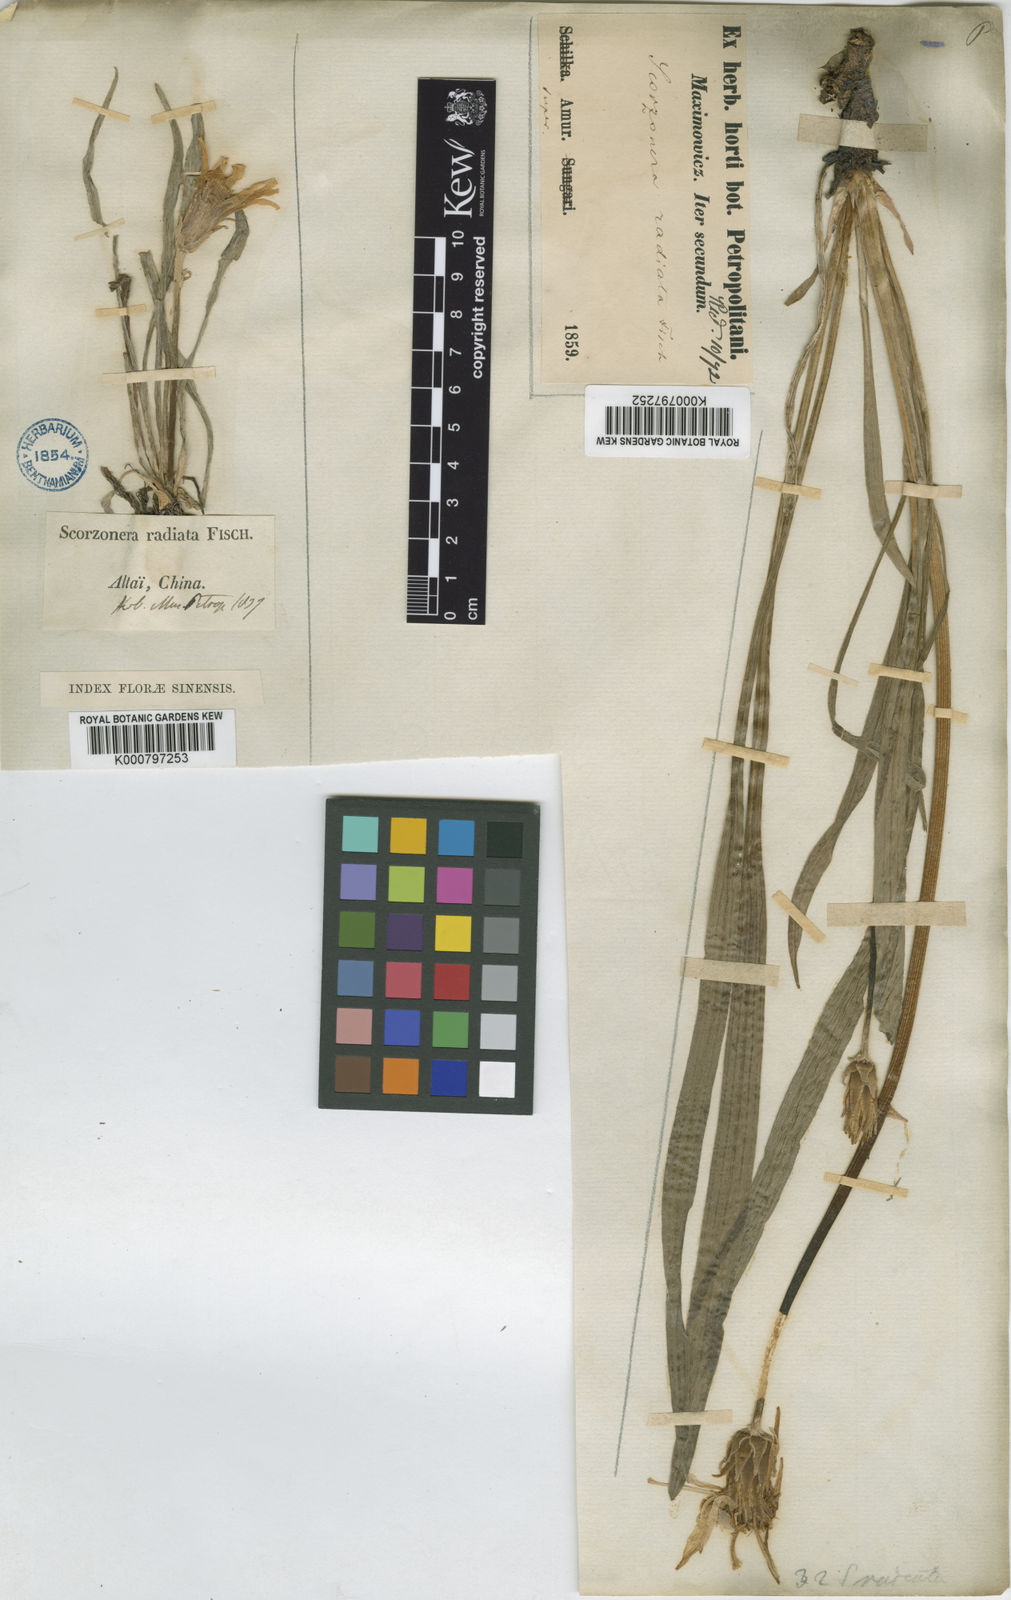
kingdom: Plantae
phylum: Tracheophyta
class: Magnoliopsida
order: Asterales
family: Asteraceae
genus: Scorzonera
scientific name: Scorzonera
